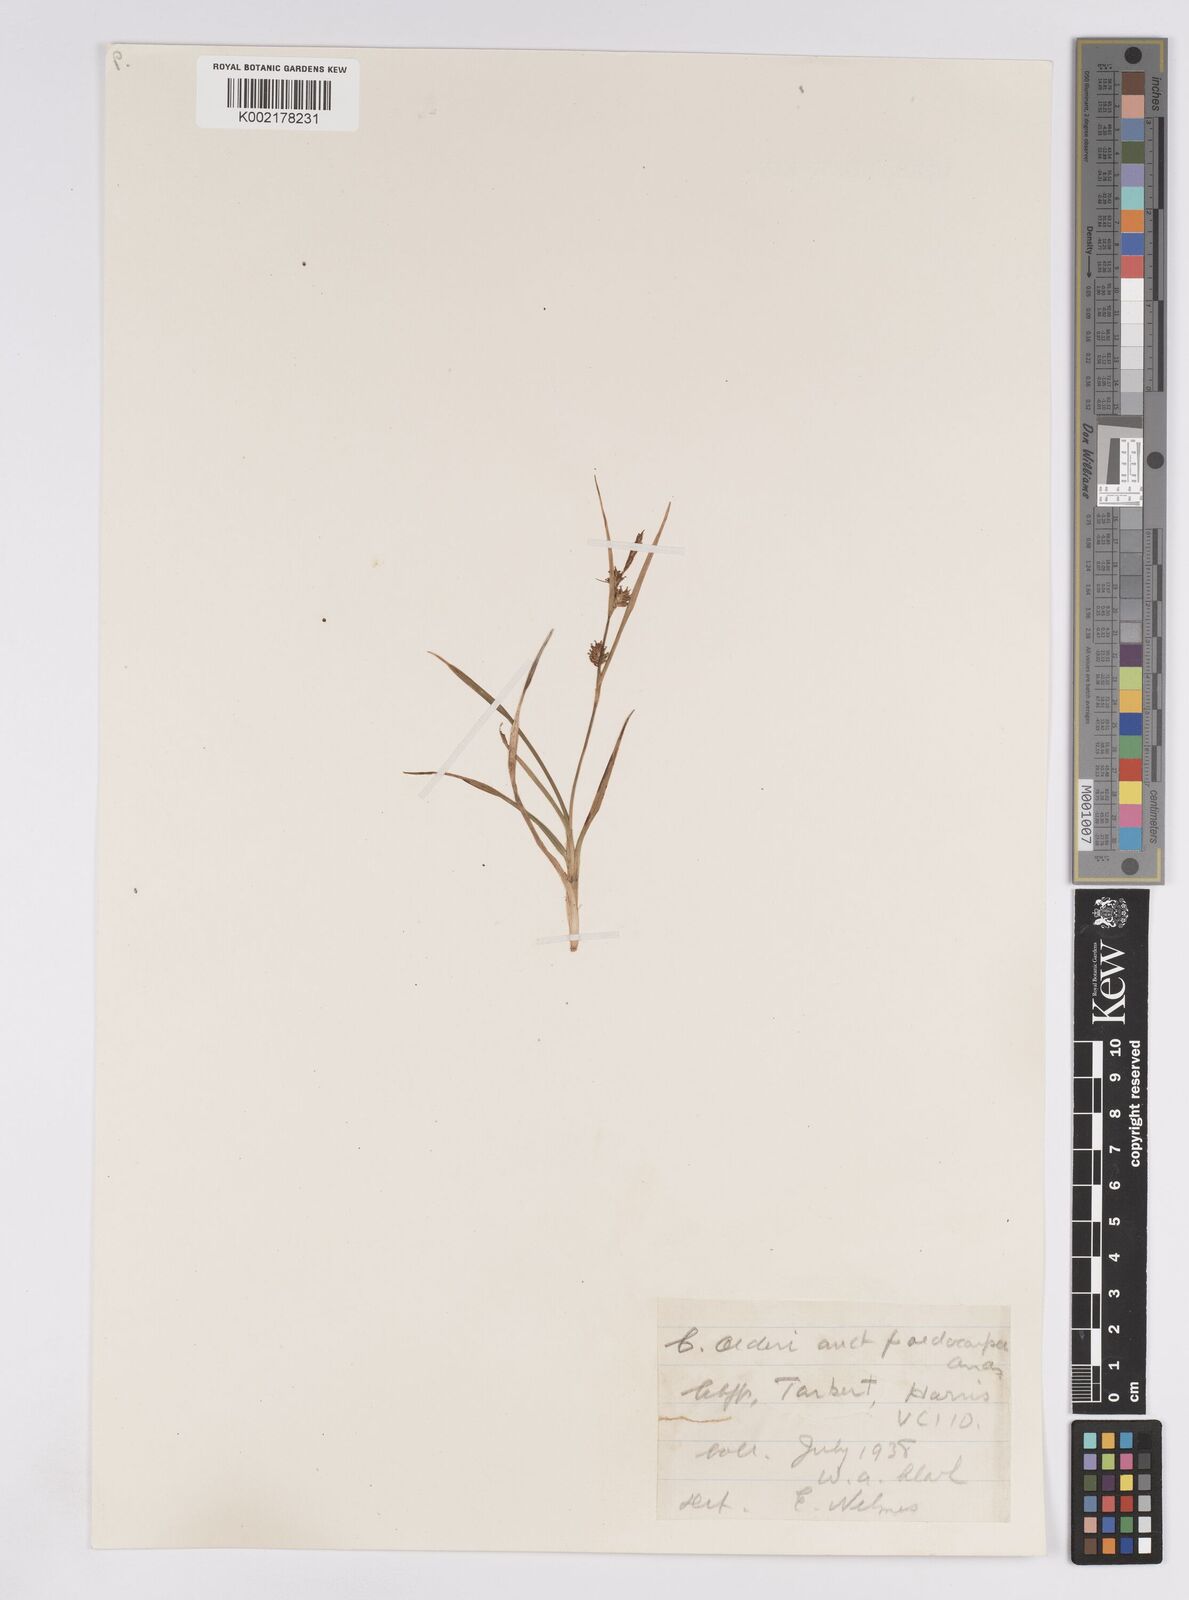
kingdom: Plantae
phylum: Tracheophyta
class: Liliopsida
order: Poales
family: Cyperaceae
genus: Carex
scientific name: Carex demissa
